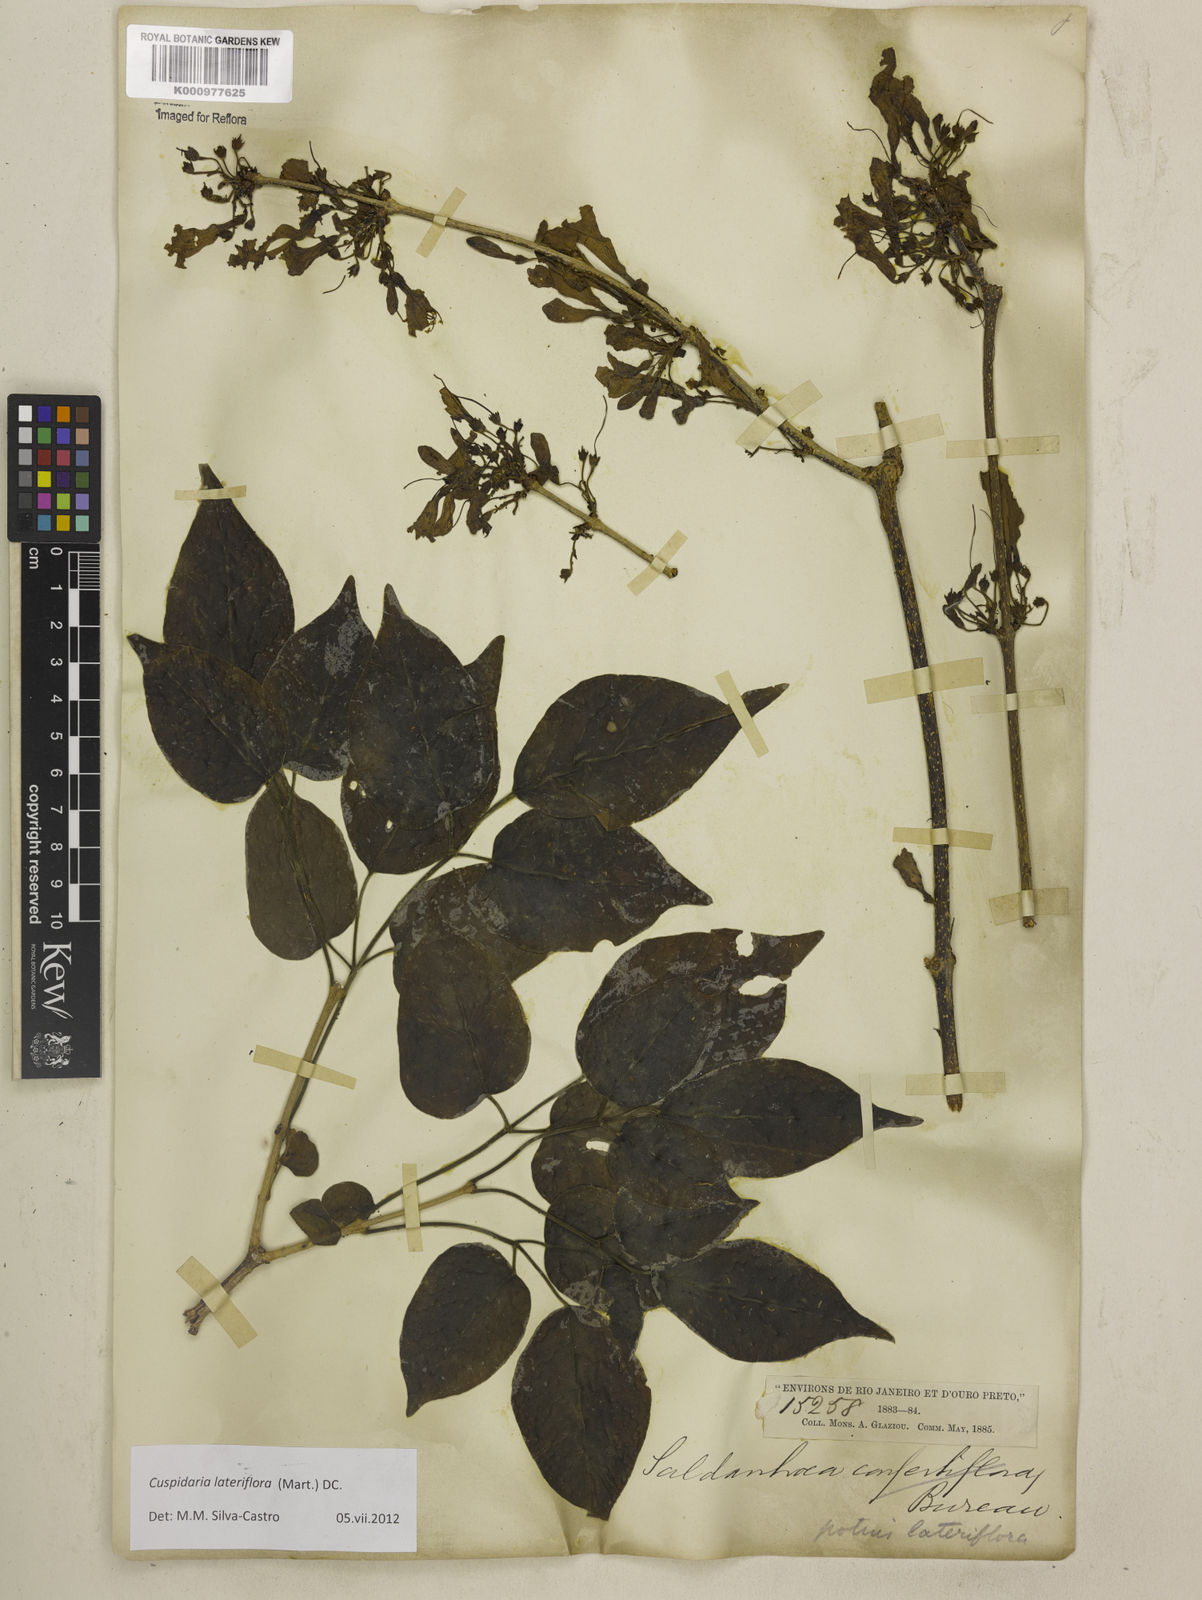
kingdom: Plantae
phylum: Tracheophyta
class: Magnoliopsida
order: Lamiales
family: Bignoniaceae
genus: Cuspidaria
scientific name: Cuspidaria lateriflora
